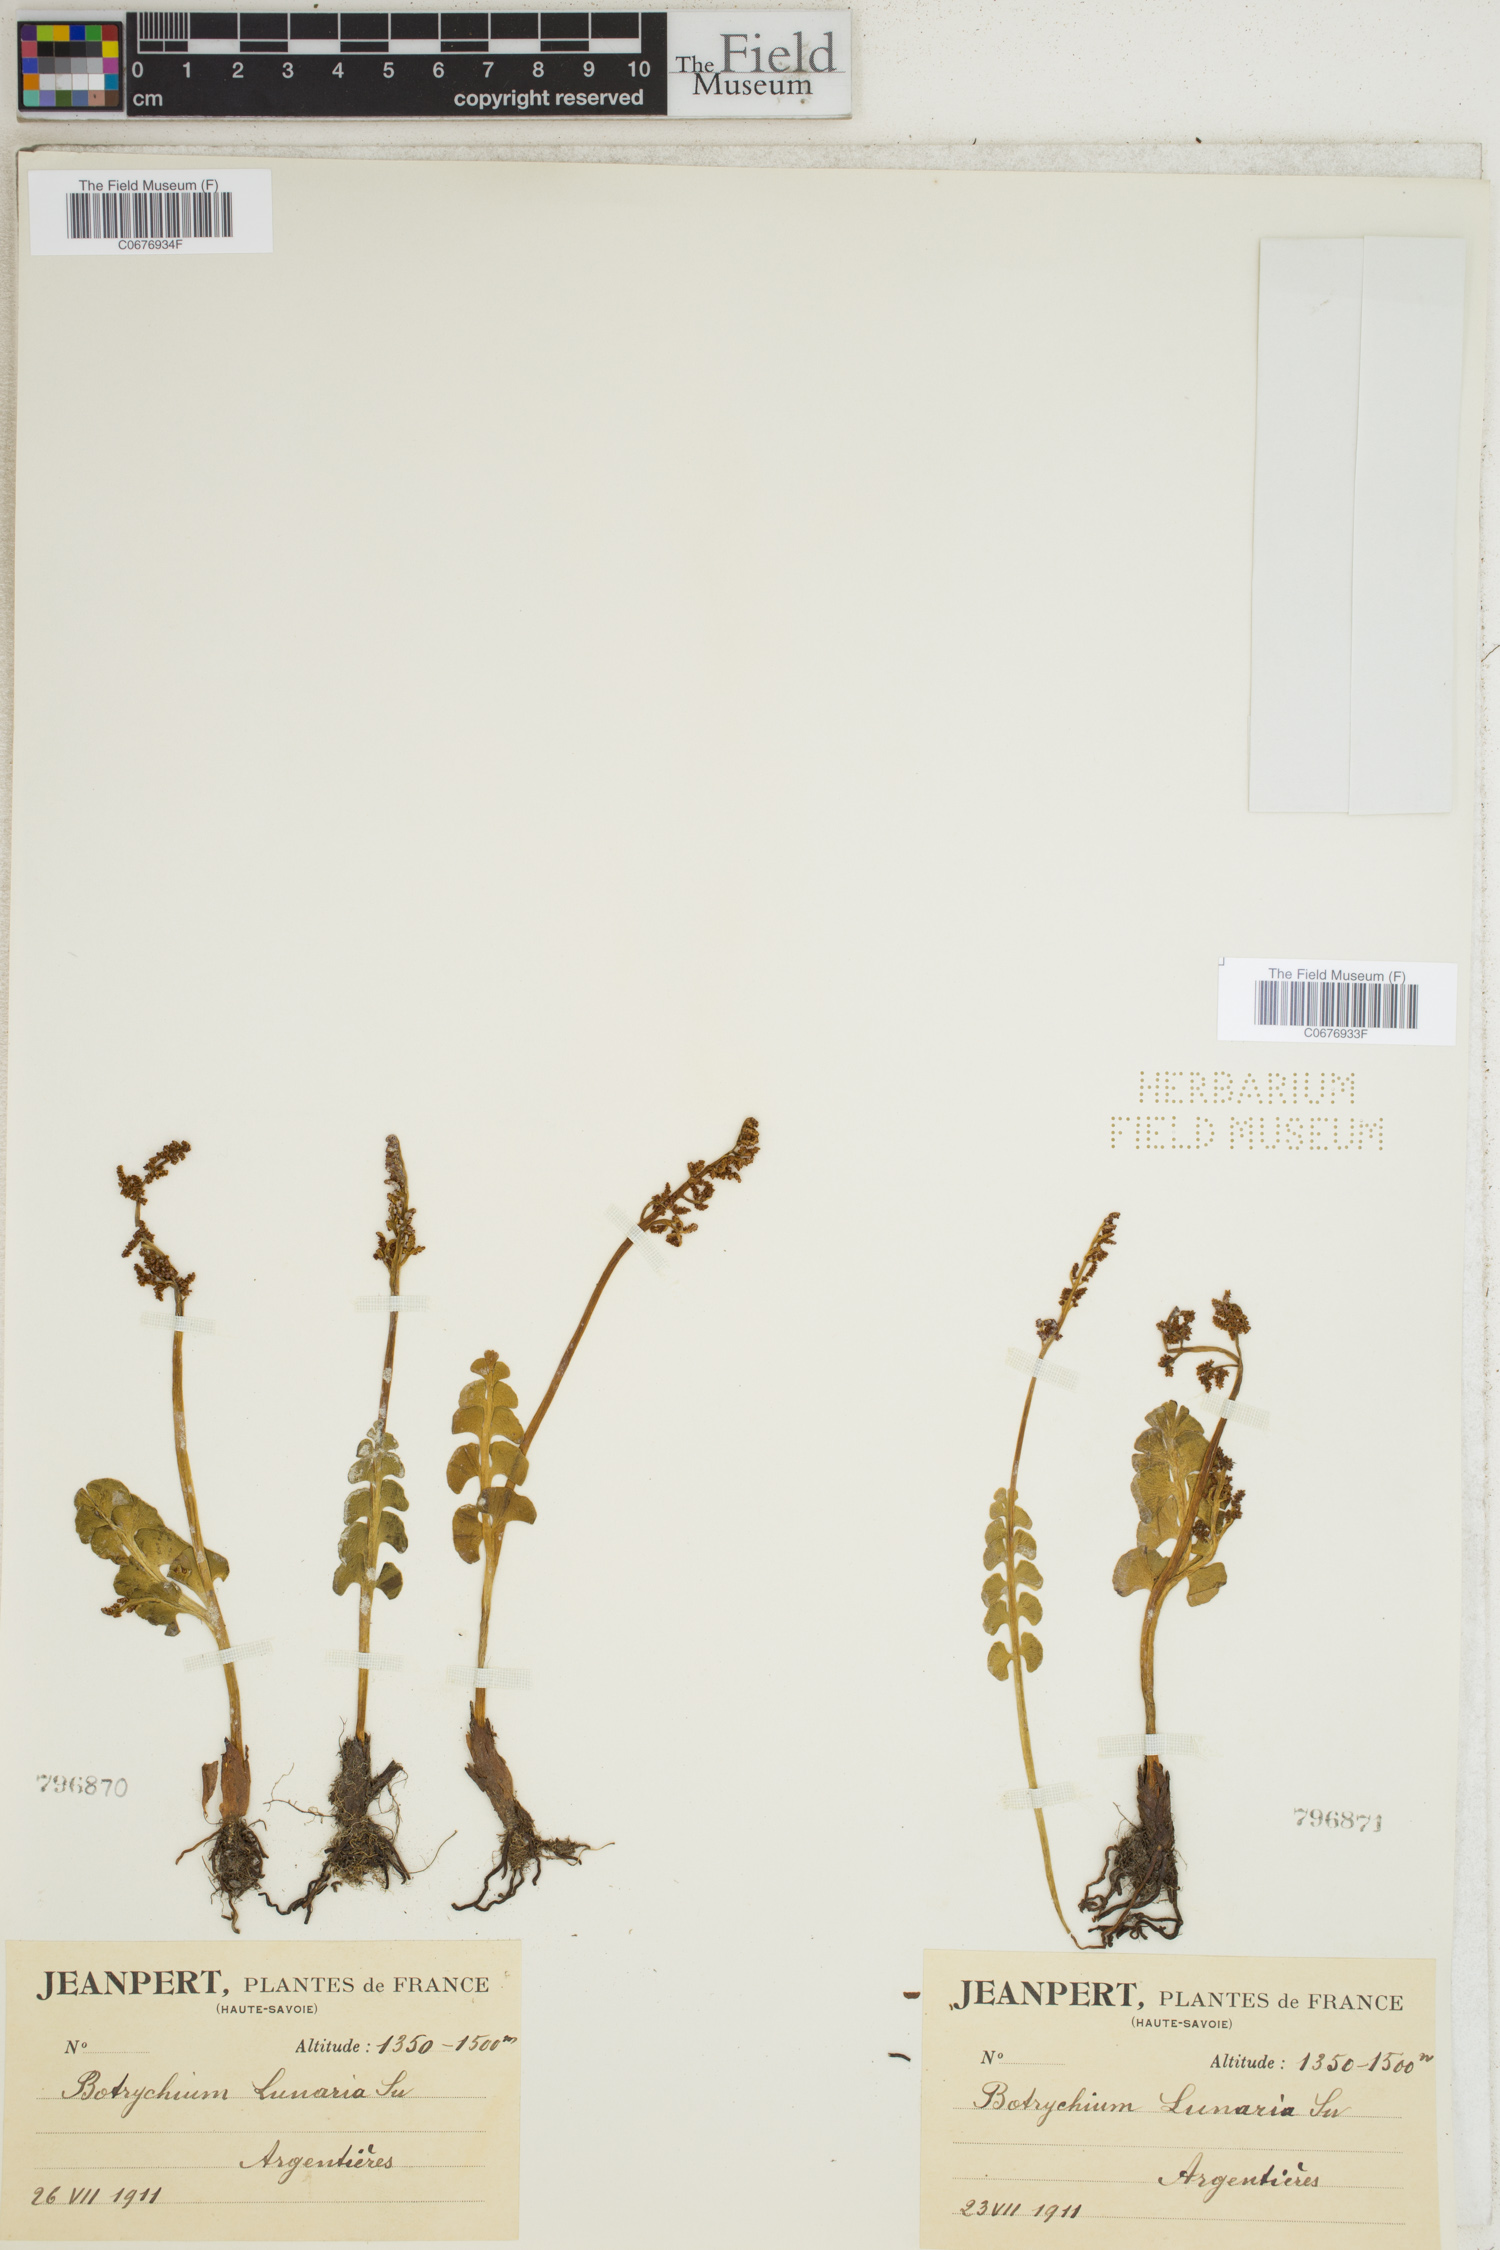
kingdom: Plantae
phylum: Tracheophyta
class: Polypodiopsida
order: Ophioglossales
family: Ophioglossaceae
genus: Botrychium
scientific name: Botrychium lunaria
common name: Moonwort
